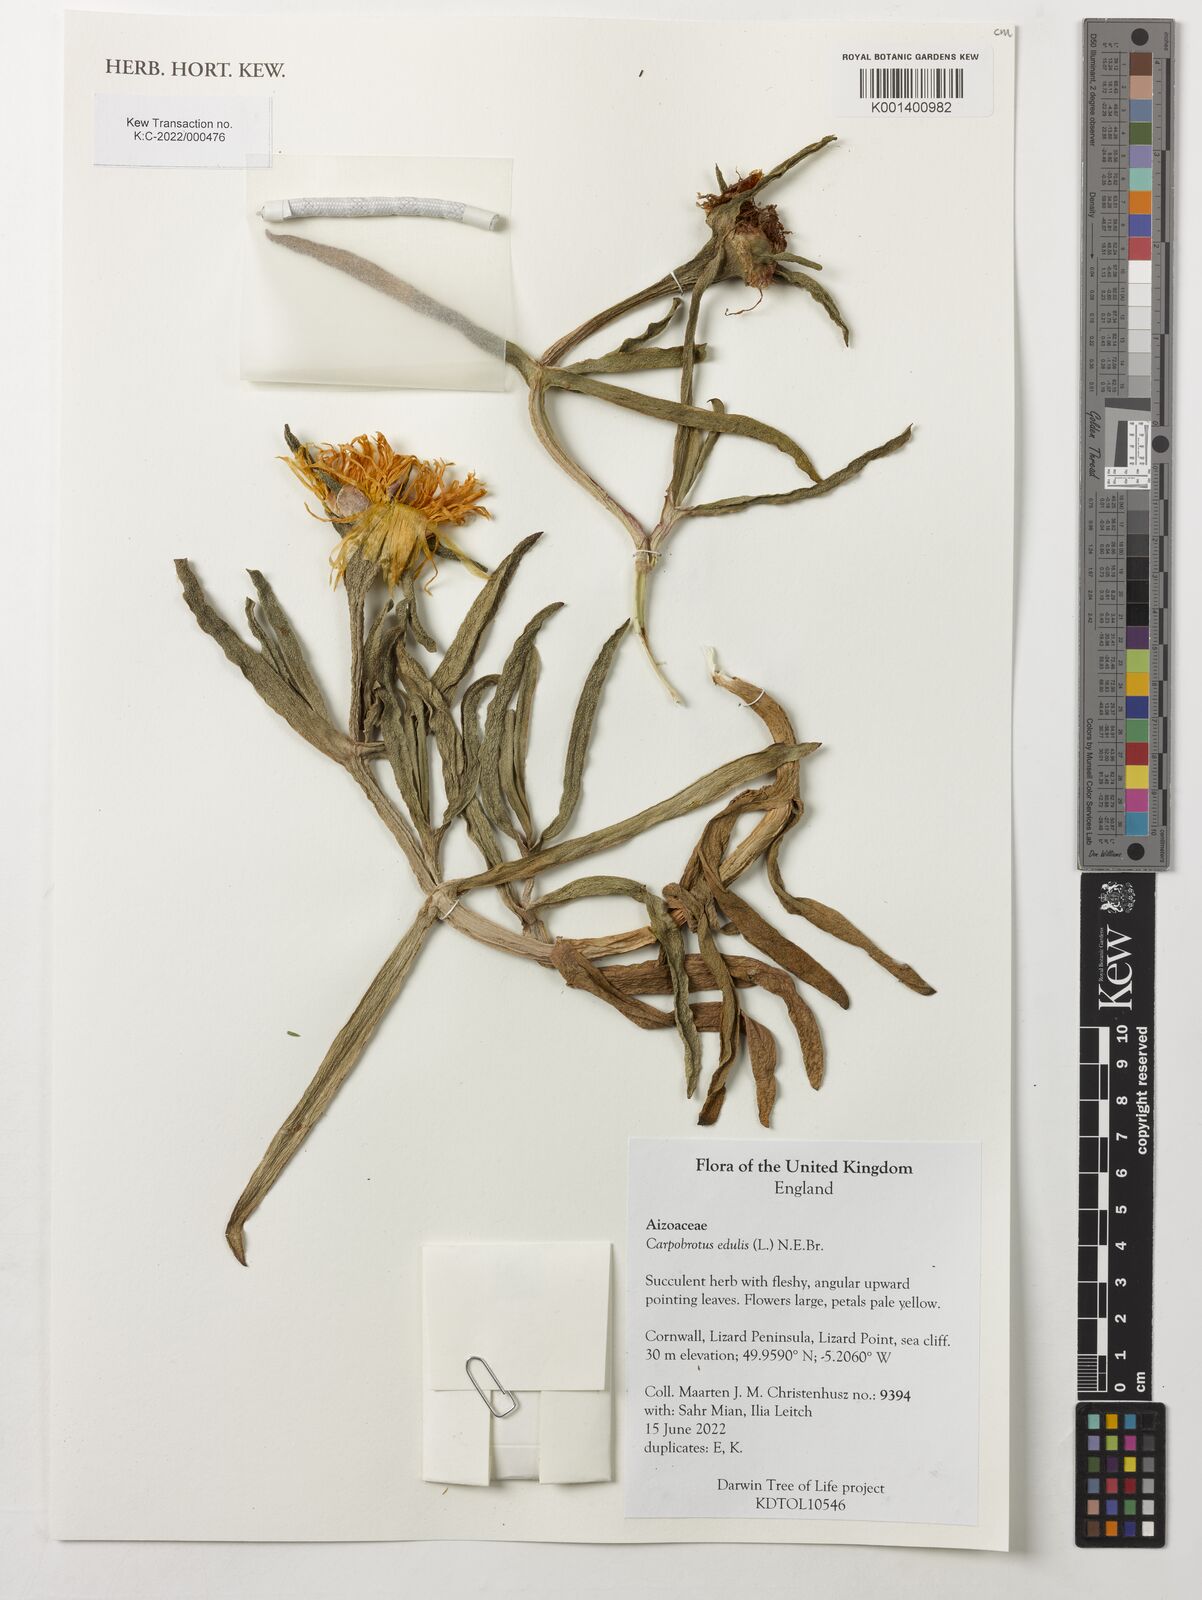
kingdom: Plantae
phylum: Tracheophyta
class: Magnoliopsida
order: Caryophyllales
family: Aizoaceae
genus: Carpobrotus
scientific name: Carpobrotus edulis
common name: Hottentot-fig
